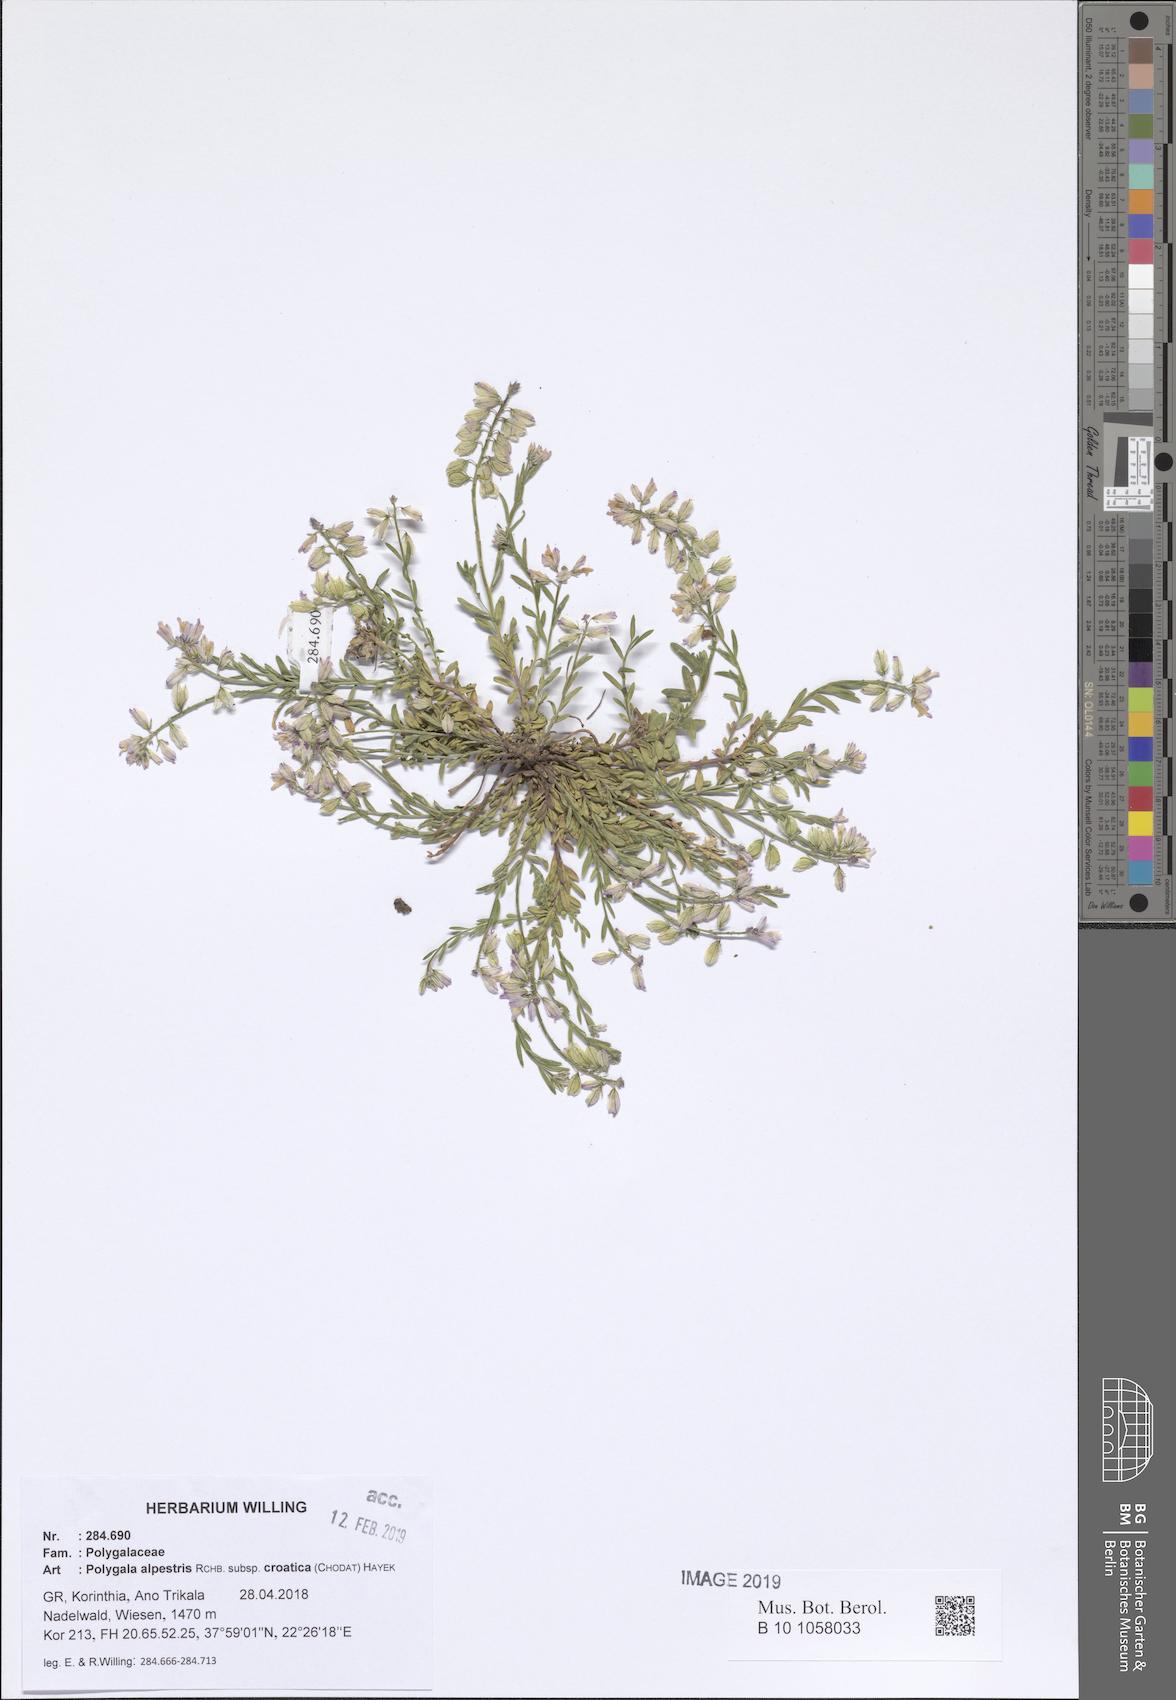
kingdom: Plantae
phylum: Tracheophyta
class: Magnoliopsida
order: Fabales
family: Polygalaceae
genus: Polygala
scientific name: Polygala alpestris
